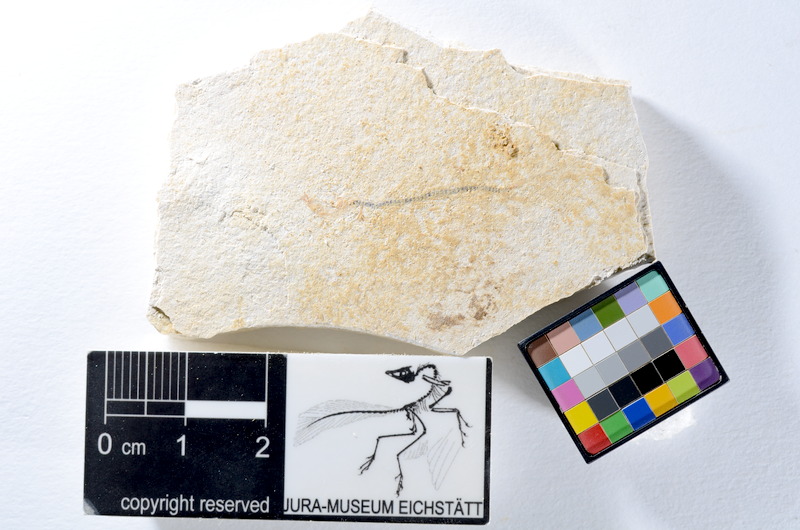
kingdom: Animalia
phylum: Chordata
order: Salmoniformes
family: Orthogonikleithridae
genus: Orthogonikleithrus
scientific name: Orthogonikleithrus hoelli
